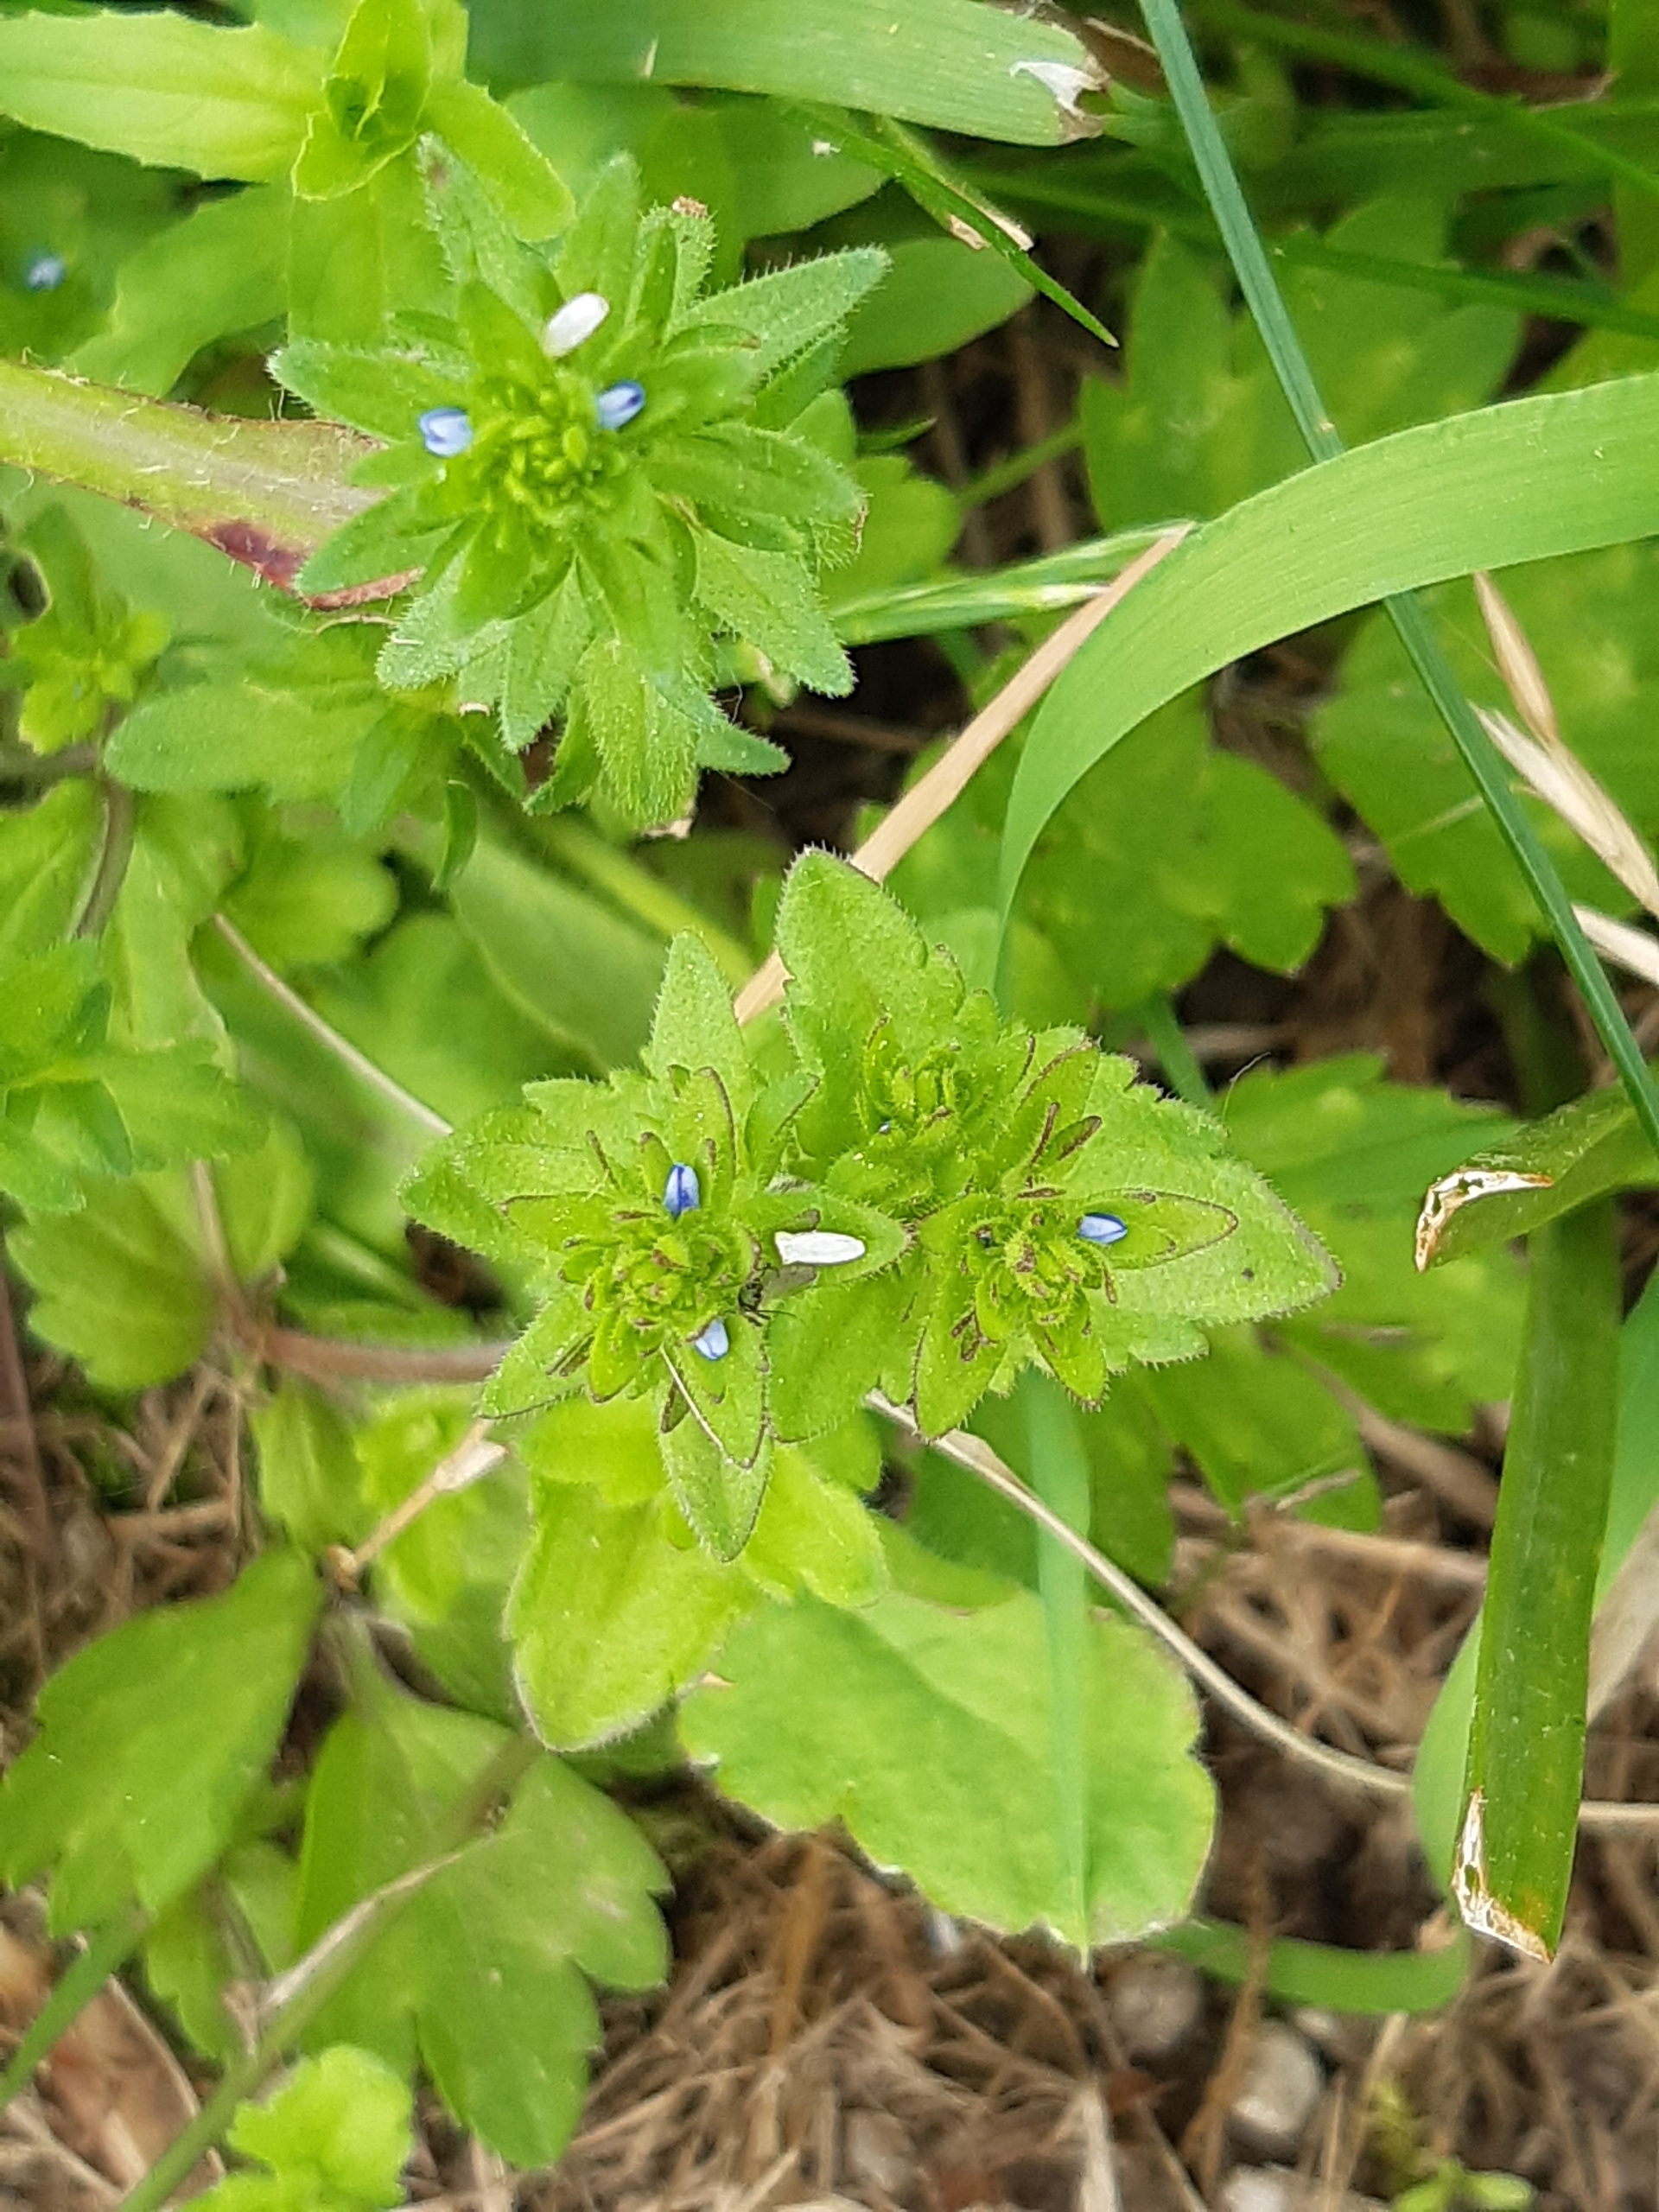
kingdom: Plantae
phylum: Tracheophyta
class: Magnoliopsida
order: Lamiales
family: Plantaginaceae
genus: Veronica
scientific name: Veronica arvensis
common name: Mark-ærenpris
